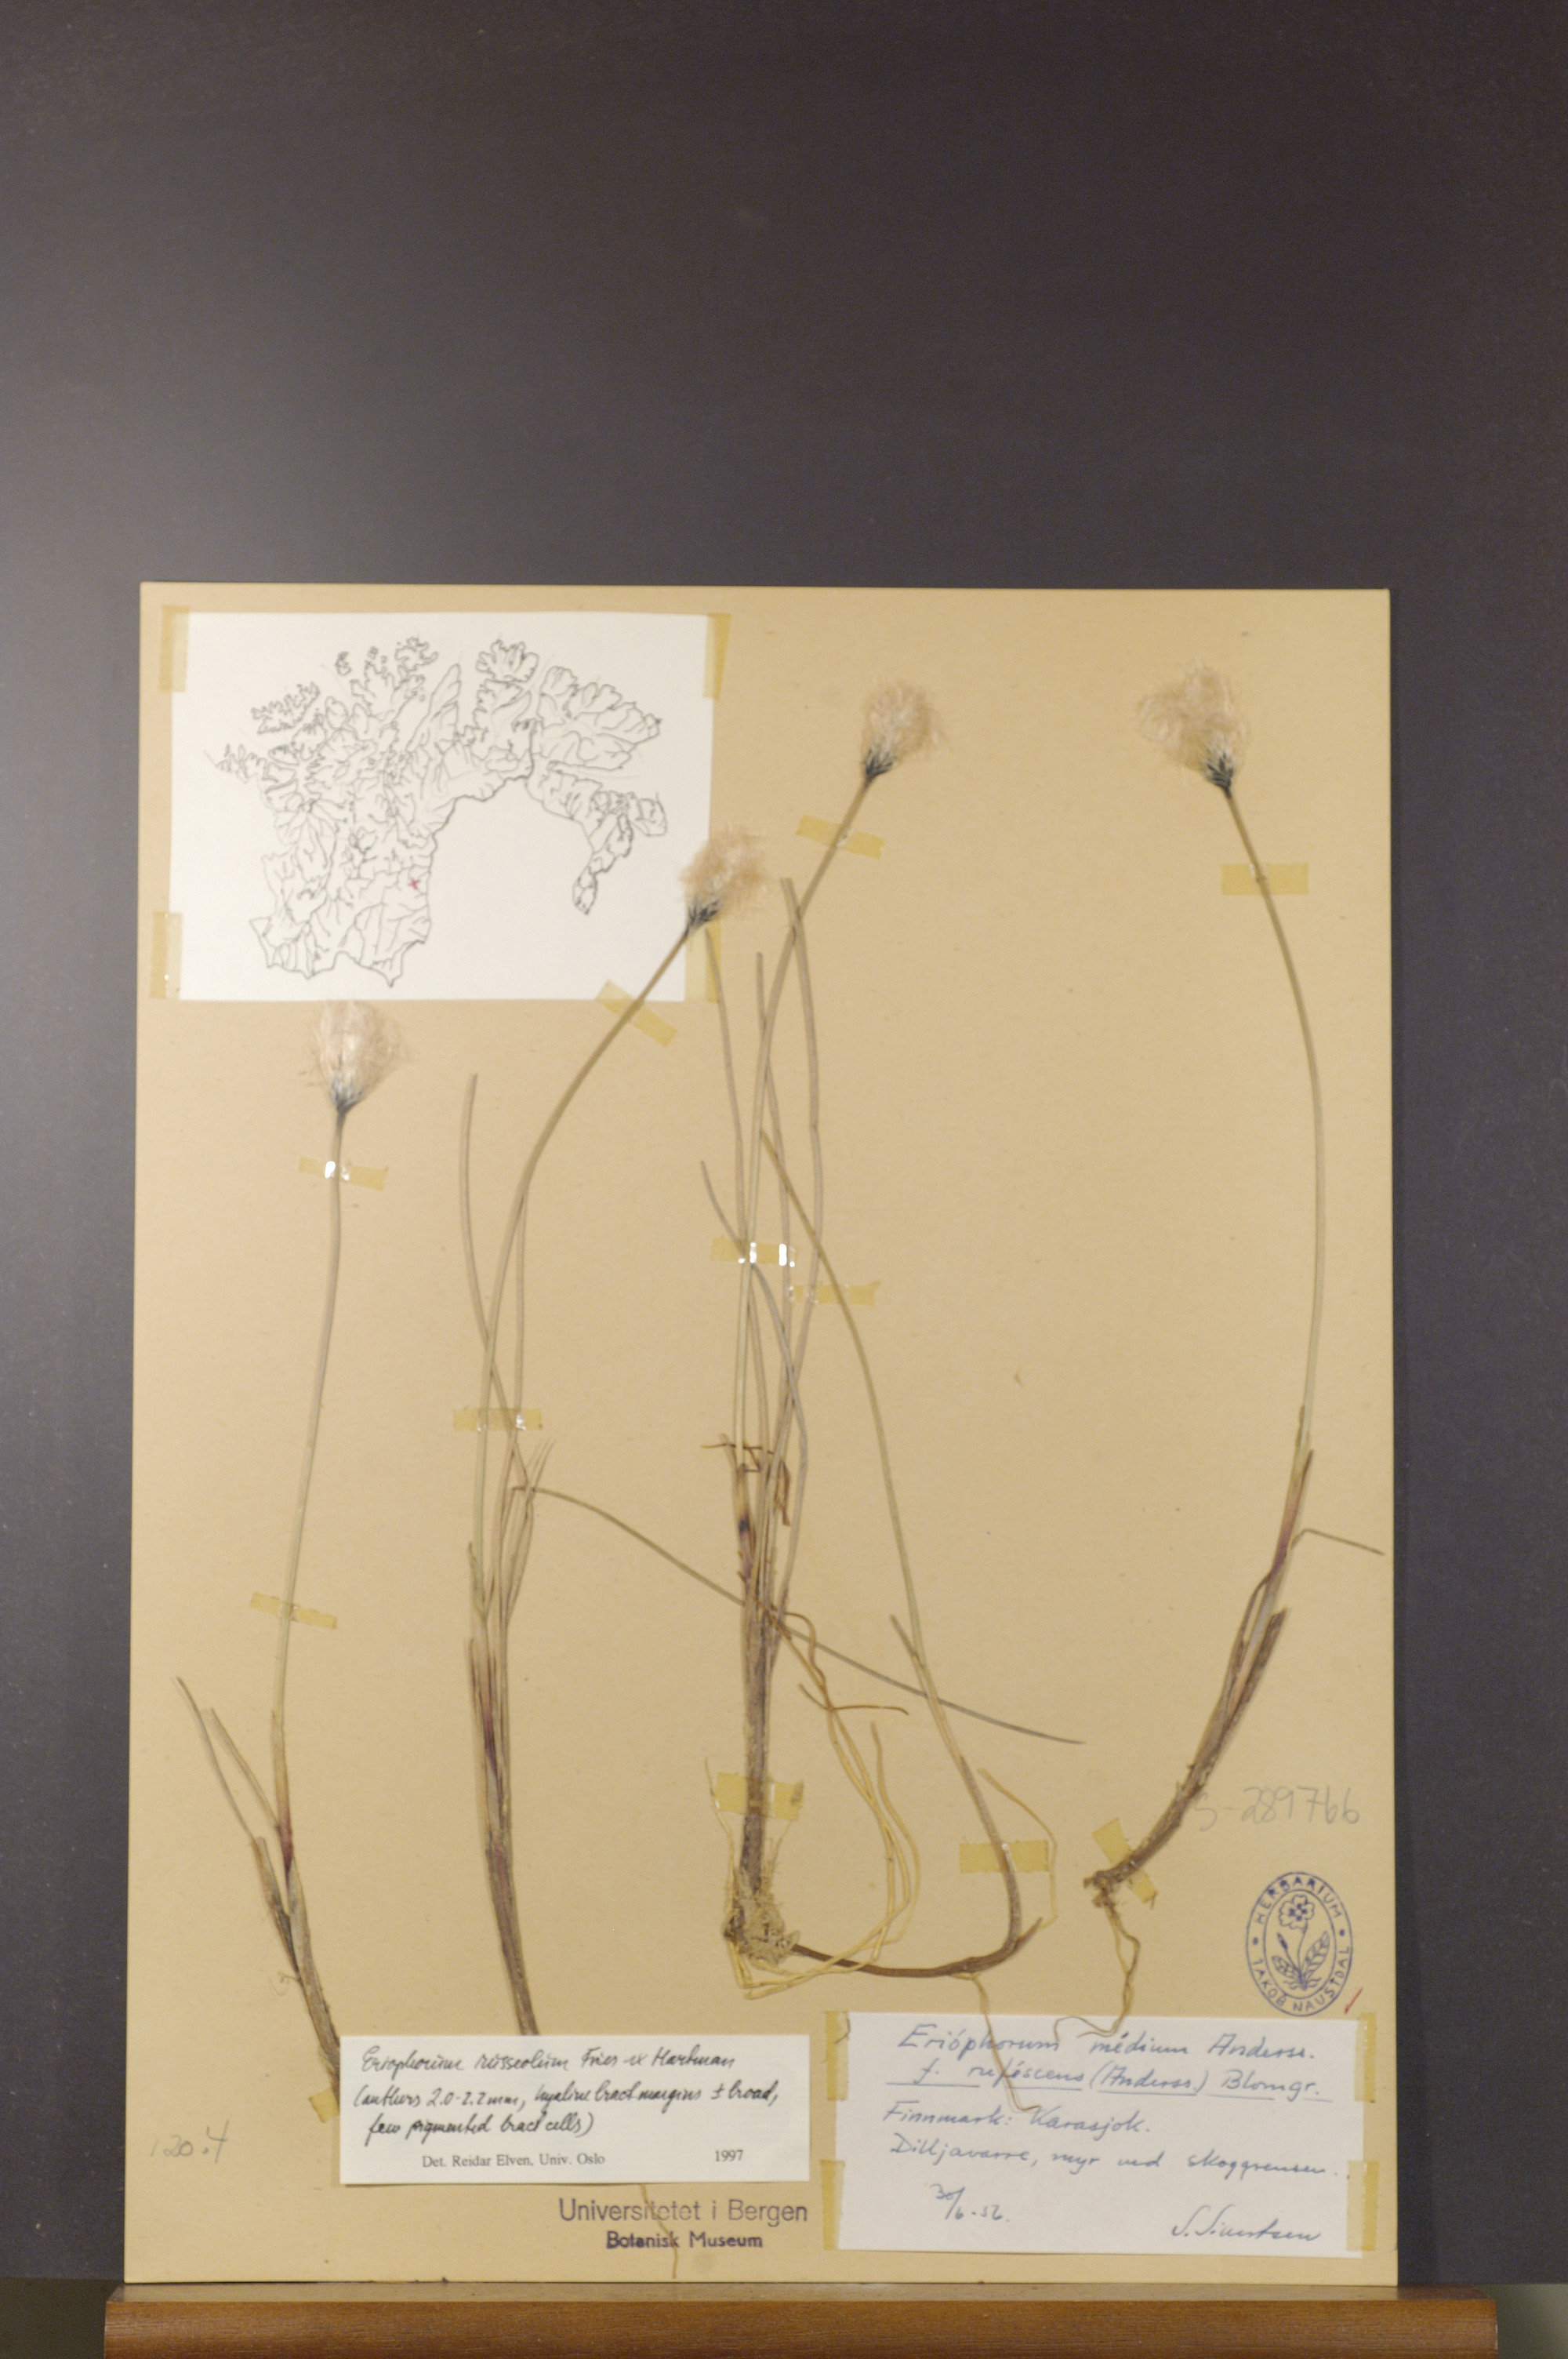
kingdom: Plantae
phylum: Tracheophyta
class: Liliopsida
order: Poales
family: Cyperaceae
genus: Eriophorum
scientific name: Eriophorum russeolum
